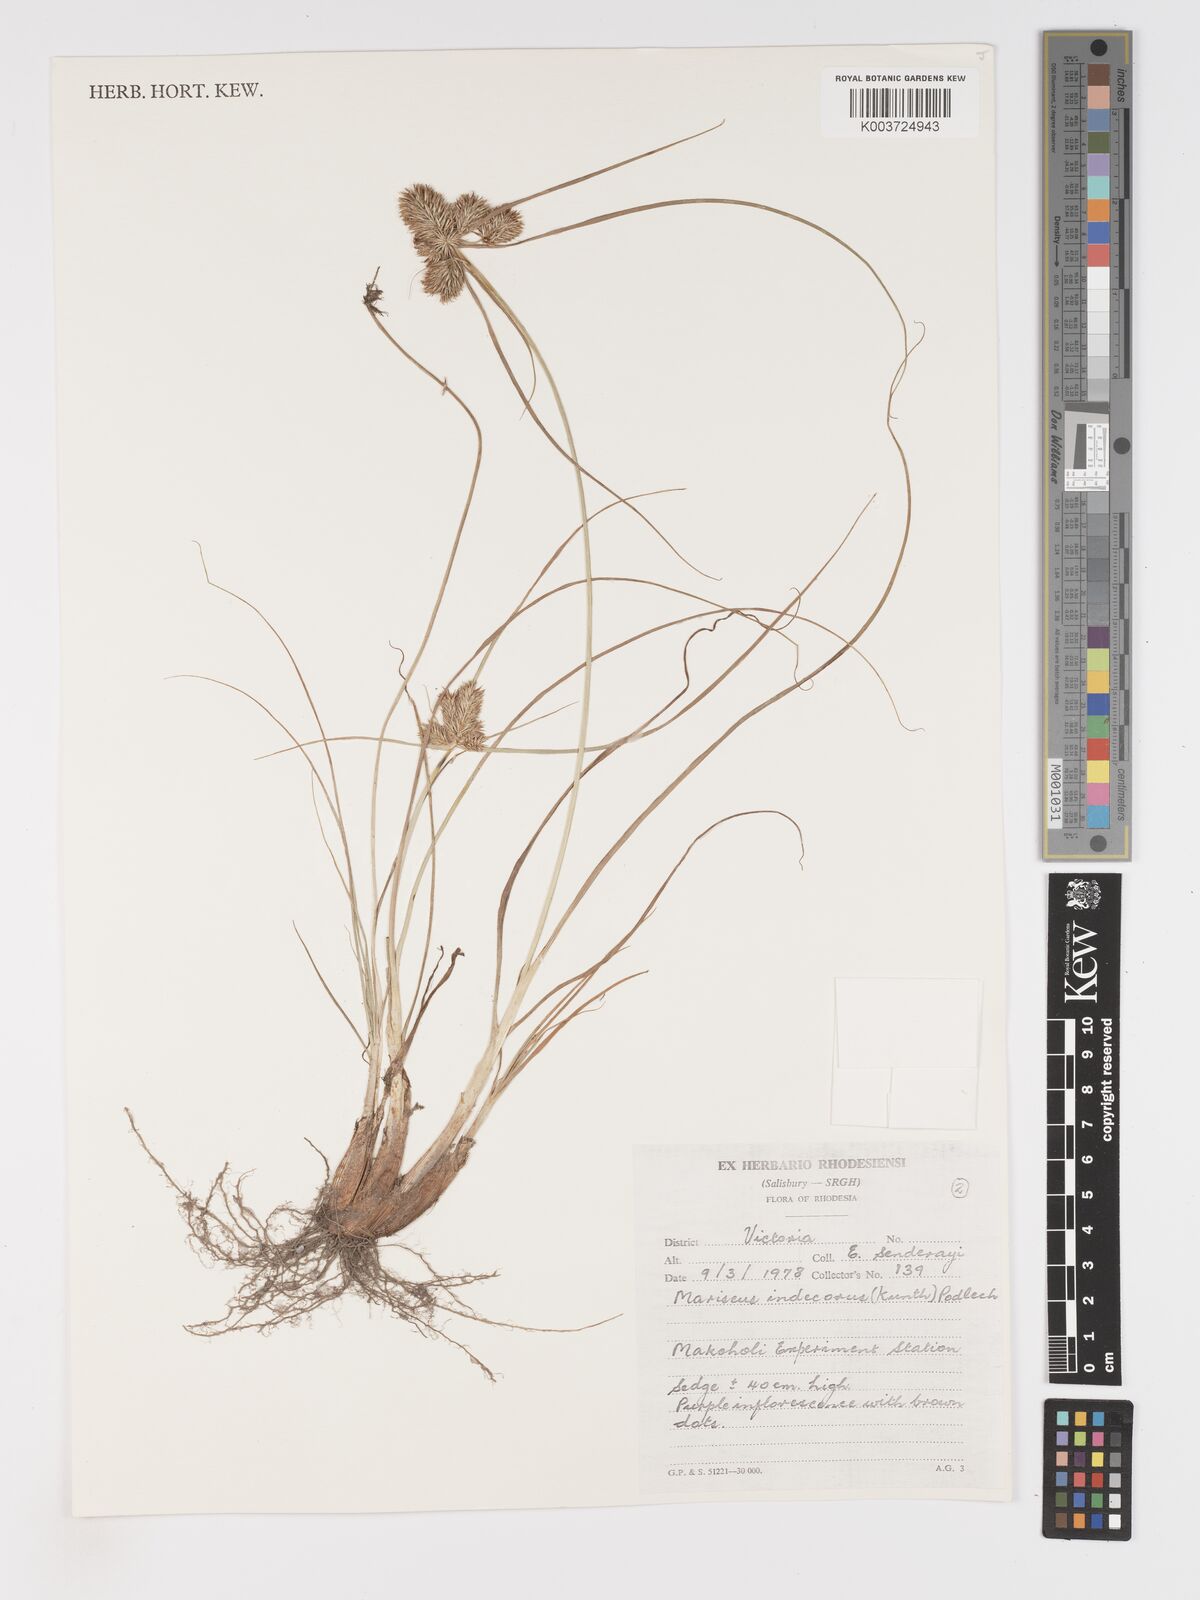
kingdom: Plantae
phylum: Tracheophyta
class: Liliopsida
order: Poales
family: Cyperaceae
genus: Cyperus
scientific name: Cyperus indecorus
